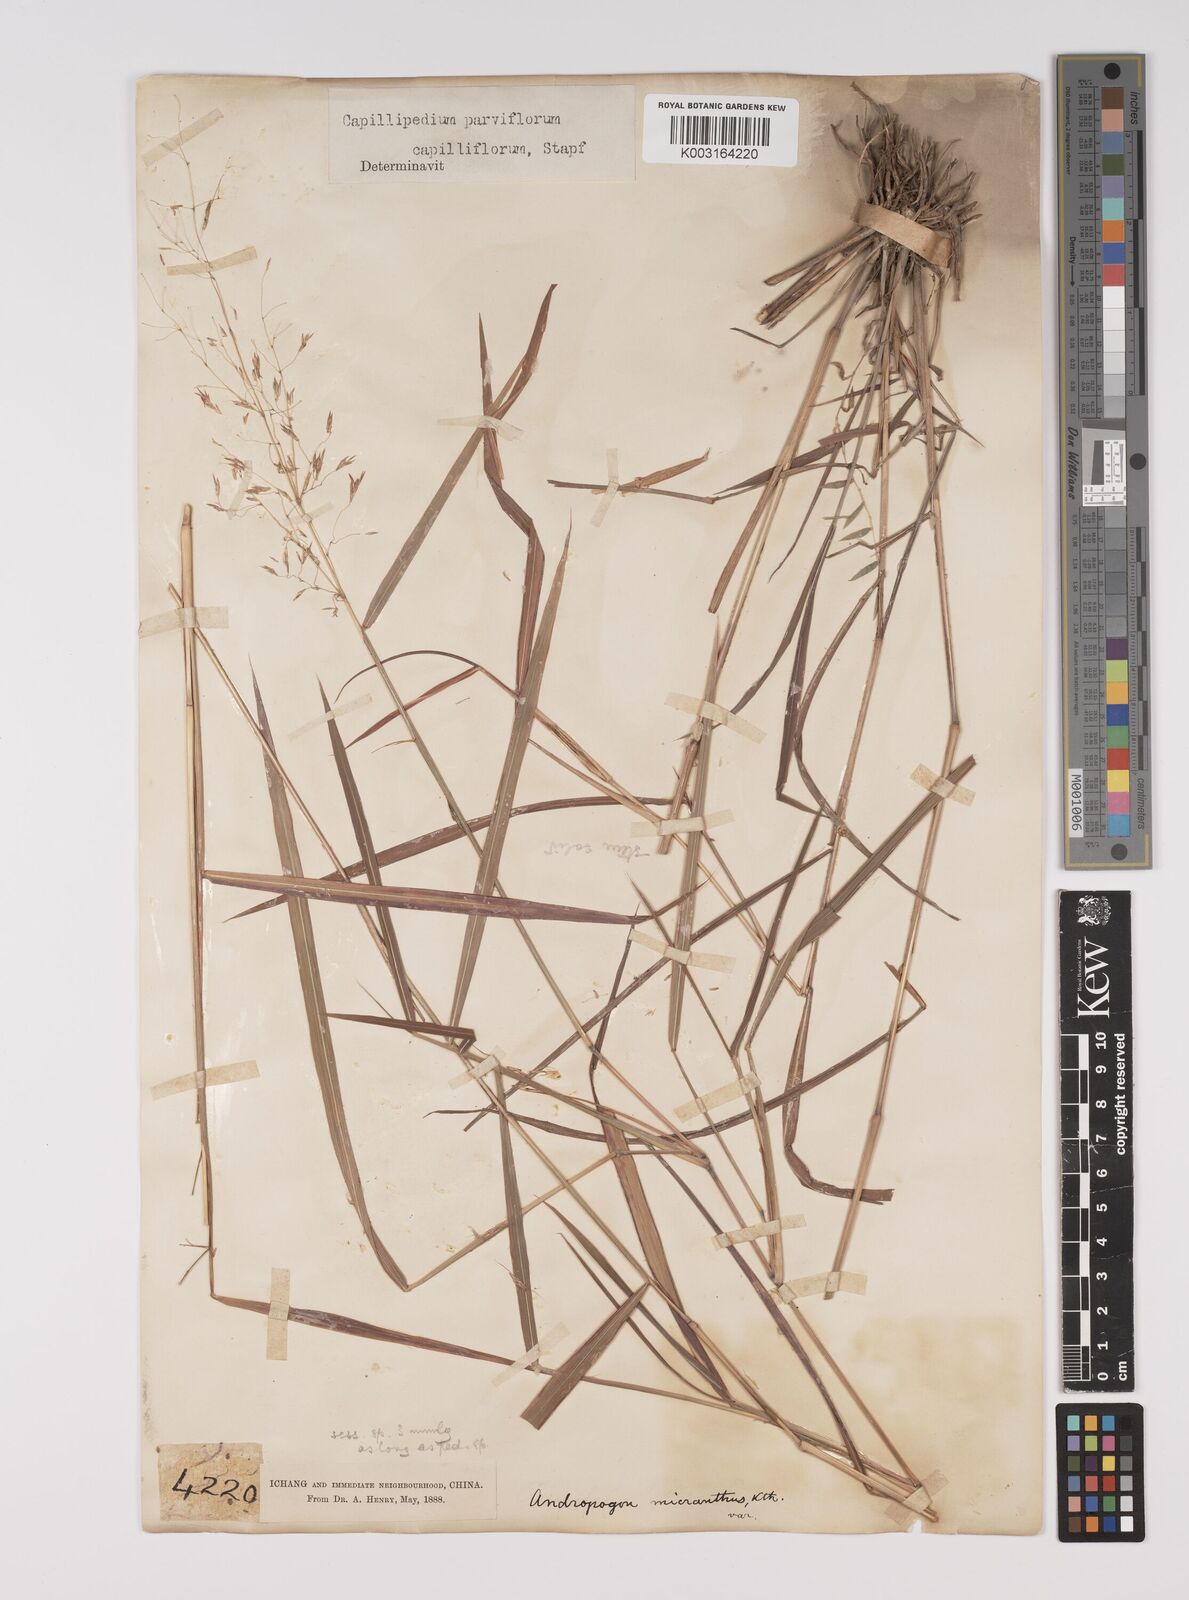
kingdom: Plantae
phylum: Tracheophyta
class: Liliopsida
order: Poales
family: Poaceae
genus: Capillipedium
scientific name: Capillipedium parviflorum
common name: Golden-beard
